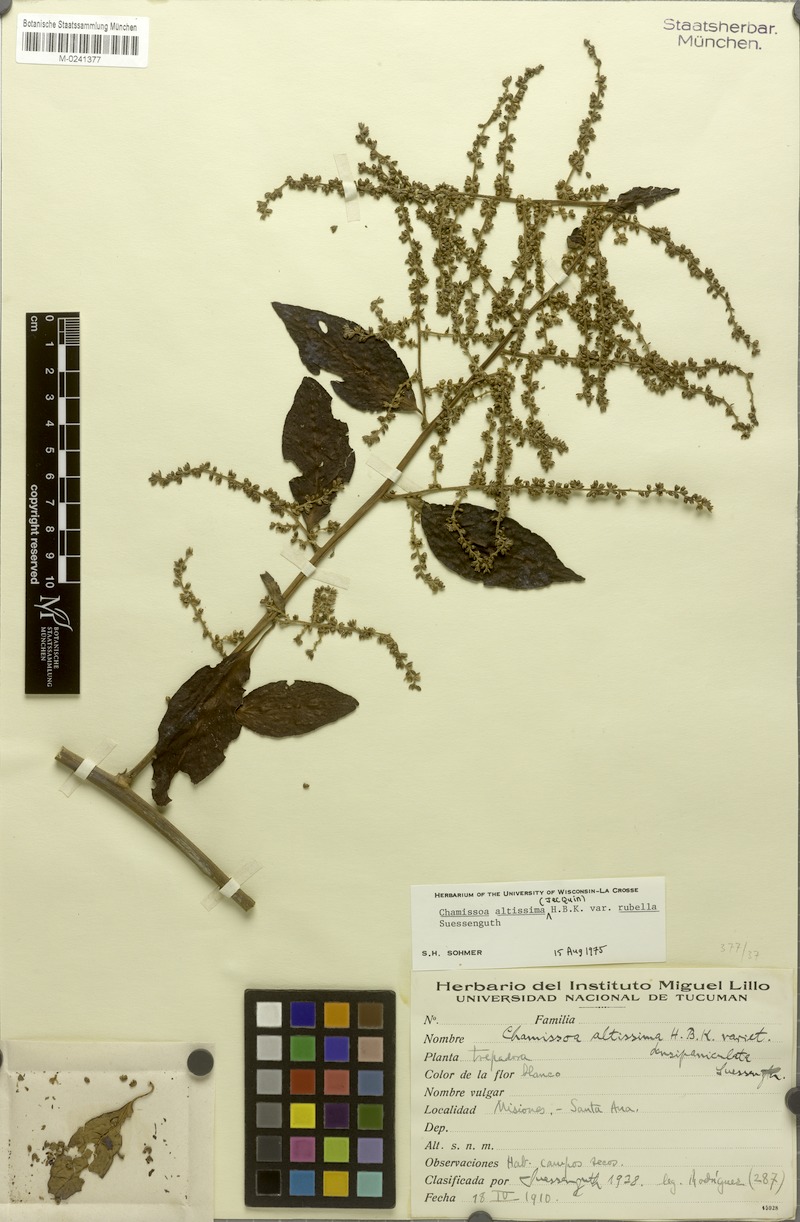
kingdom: Plantae
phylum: Tracheophyta
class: Magnoliopsida
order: Caryophyllales
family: Amaranthaceae
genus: Chamissoa
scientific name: Chamissoa altissima
